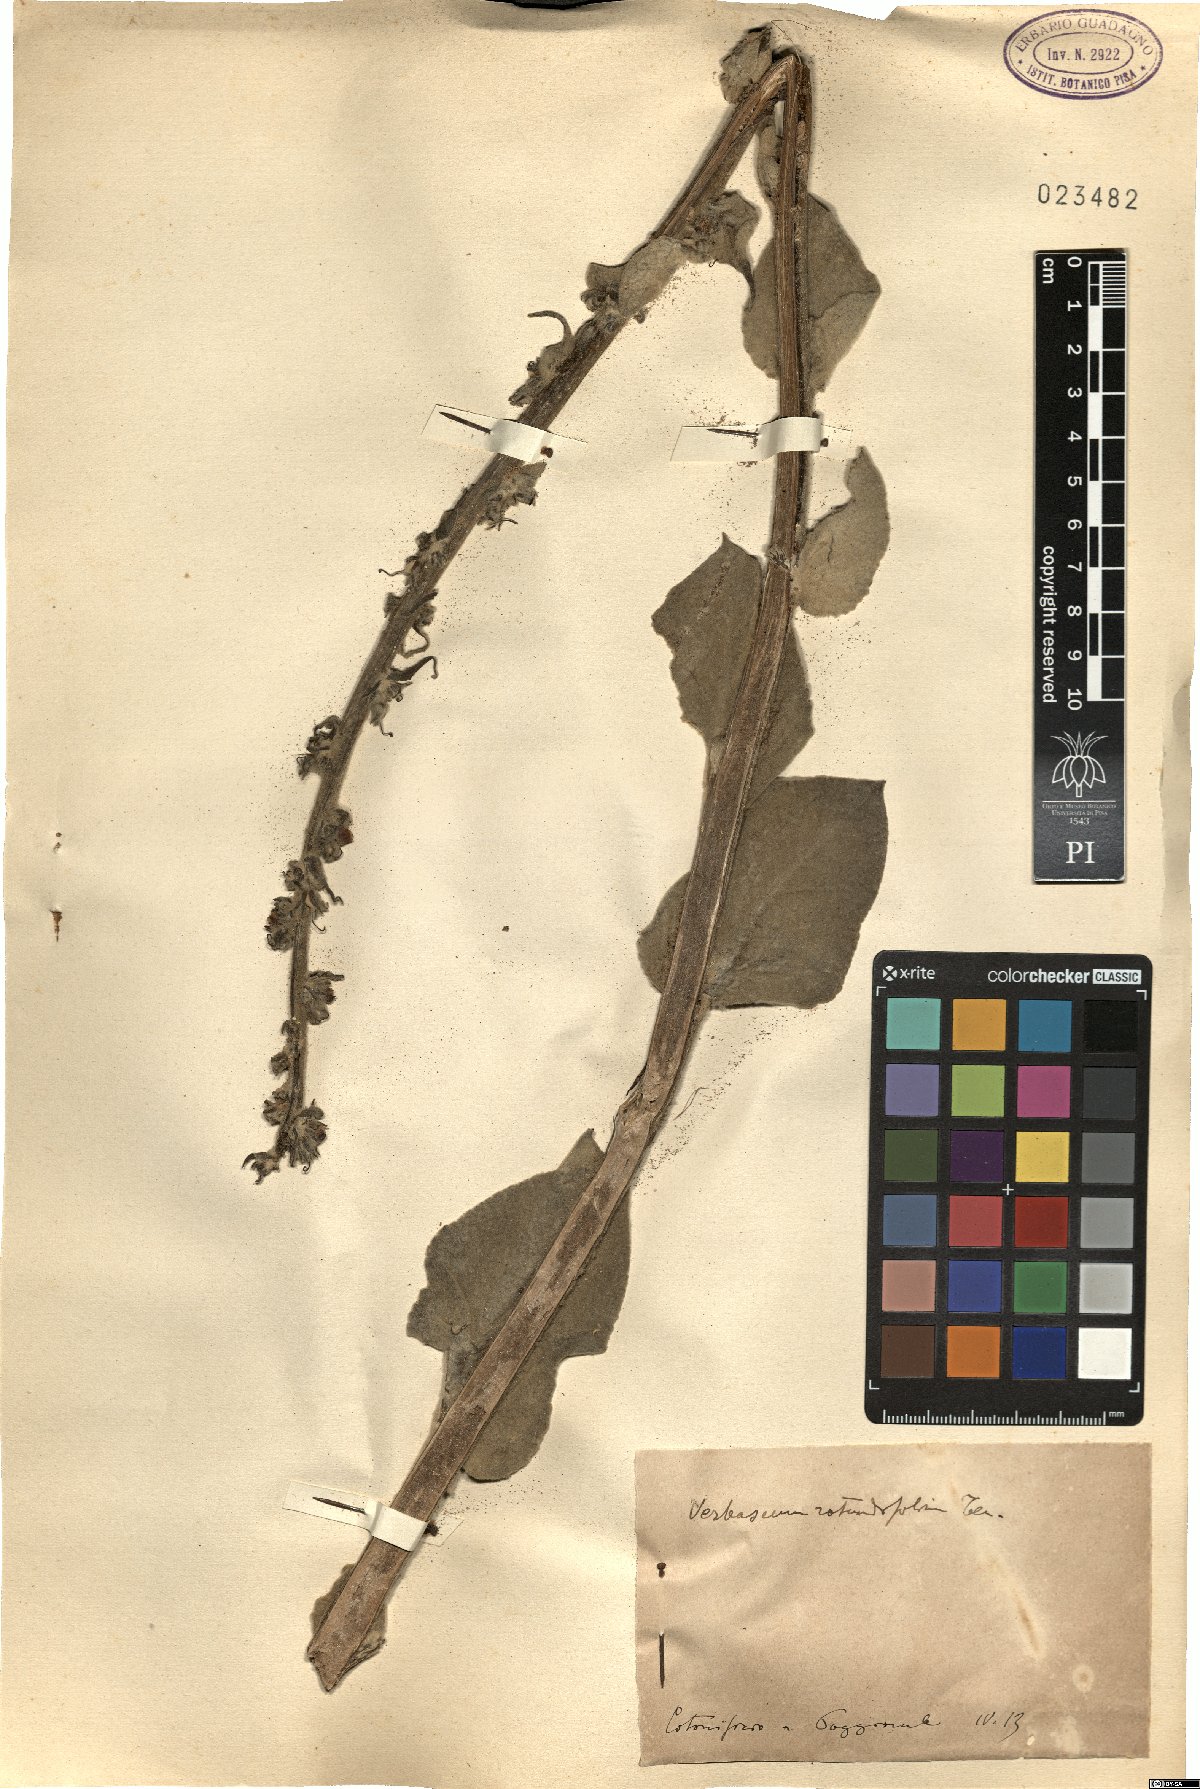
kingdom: Plantae
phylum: Tracheophyta
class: Magnoliopsida
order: Lamiales
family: Scrophulariaceae
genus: Verbascum
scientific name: Verbascum rotundifolium
